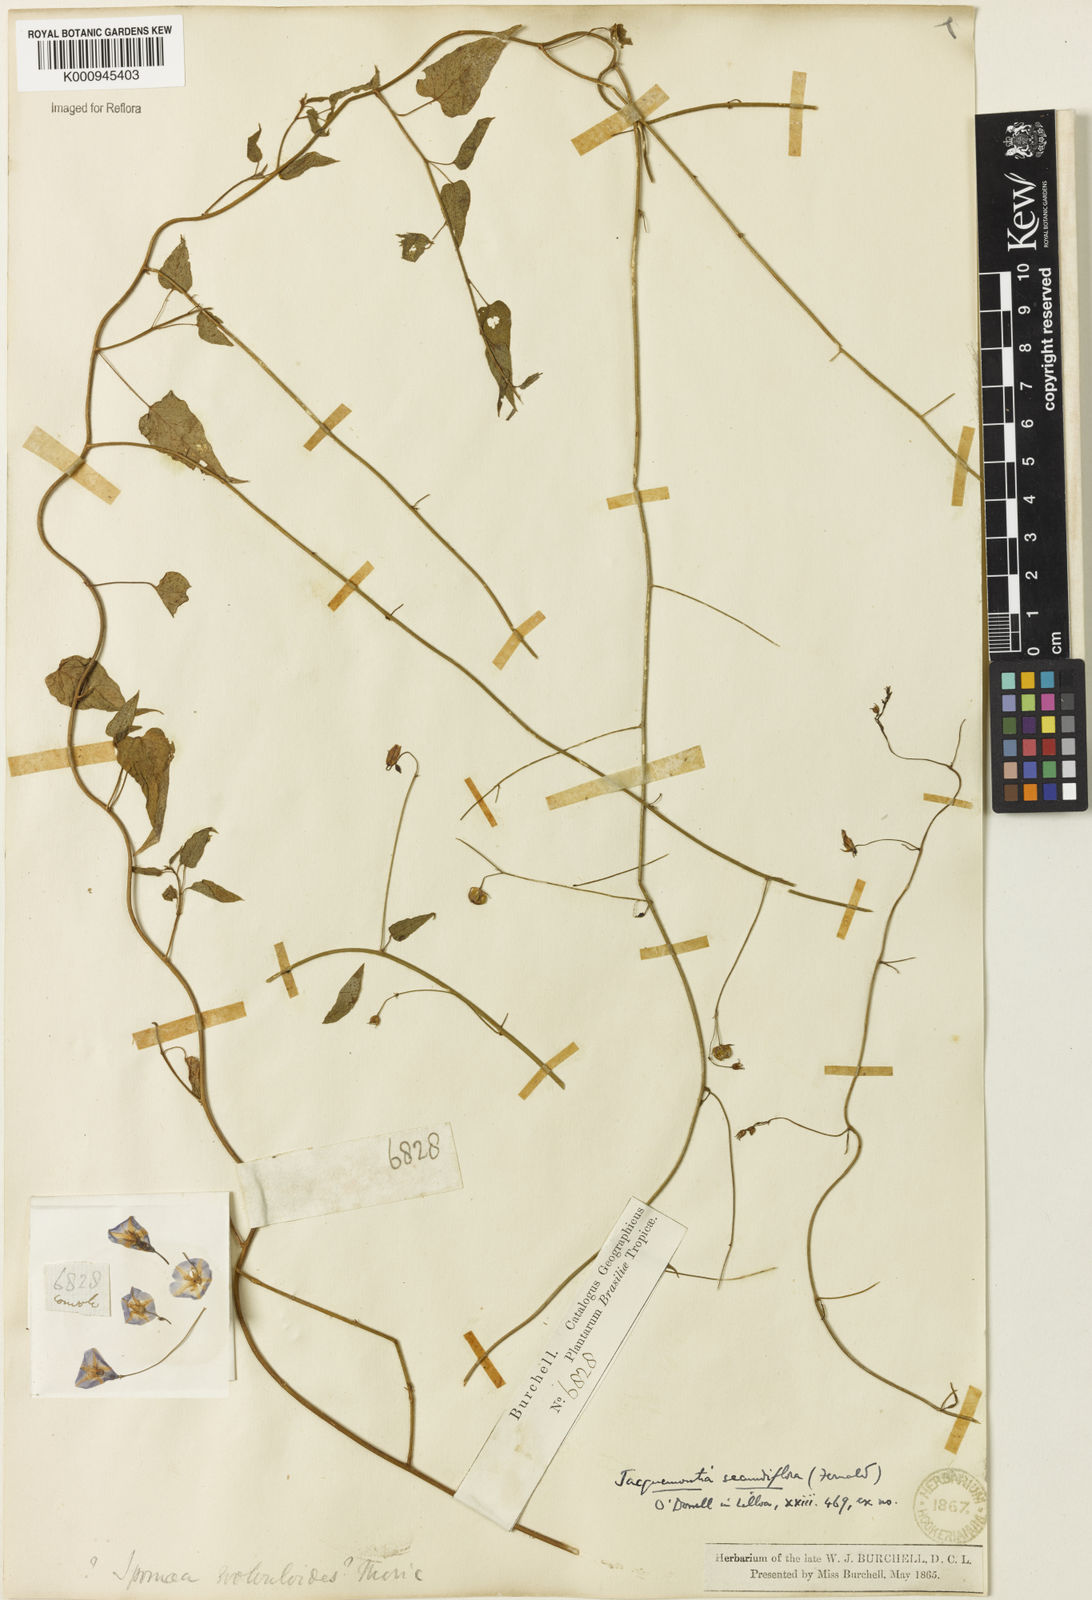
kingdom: Plantae
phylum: Tracheophyta
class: Magnoliopsida
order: Solanales
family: Convolvulaceae
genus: Jacquemontia
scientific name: Jacquemontia agrestis
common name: Midnightblue clustervine
